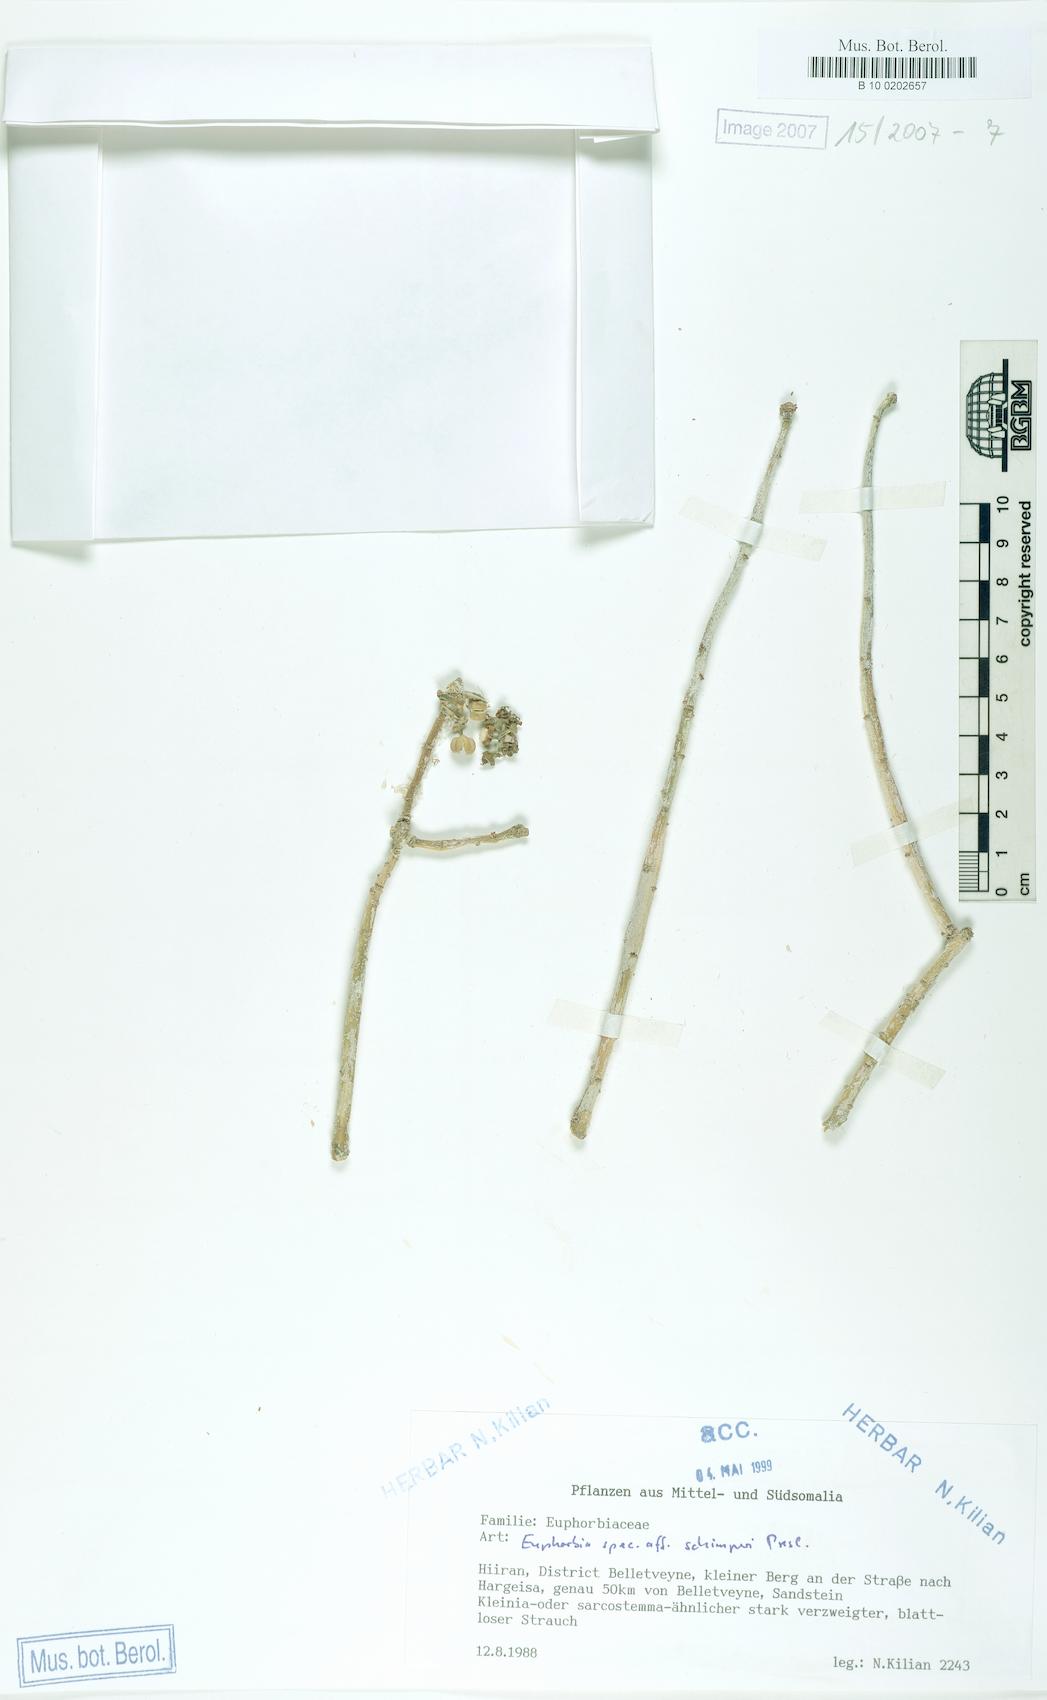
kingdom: Plantae
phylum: Tracheophyta
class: Magnoliopsida
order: Malpighiales
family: Euphorbiaceae
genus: Euphorbia
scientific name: Euphorbia schimperi
